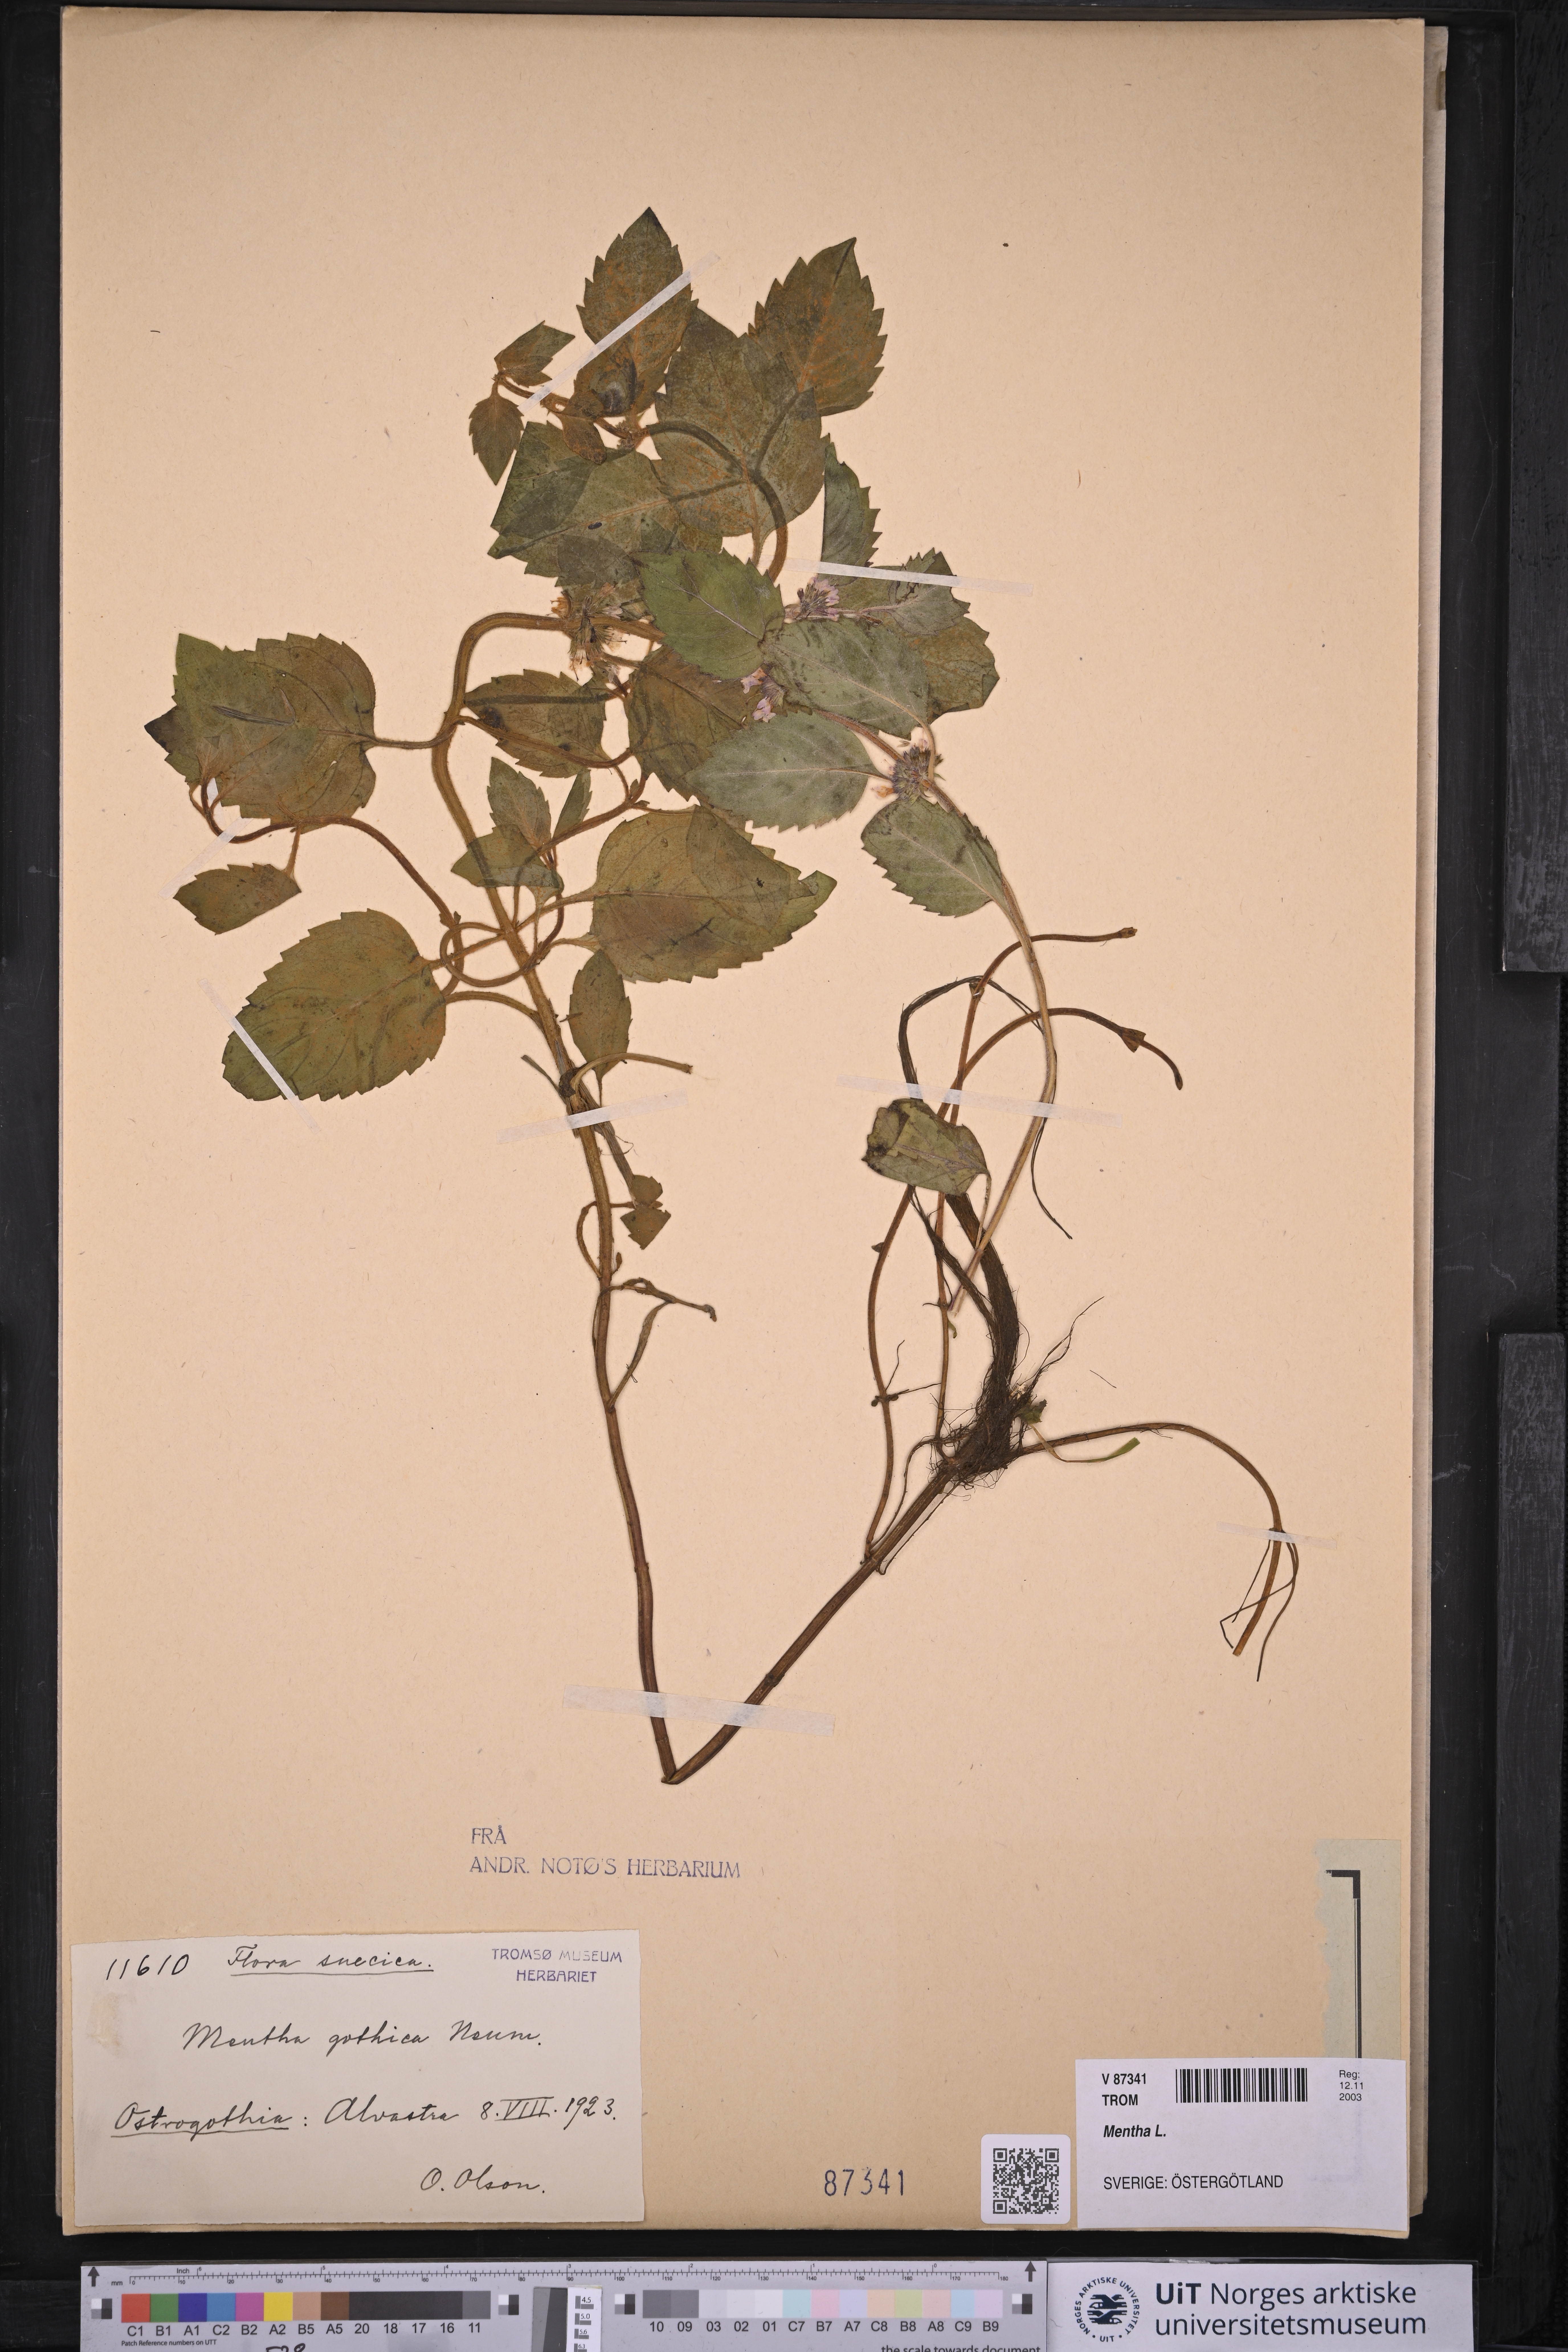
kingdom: Plantae
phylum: Tracheophyta
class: Magnoliopsida
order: Lamiales
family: Lamiaceae
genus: Mentha
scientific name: Mentha
